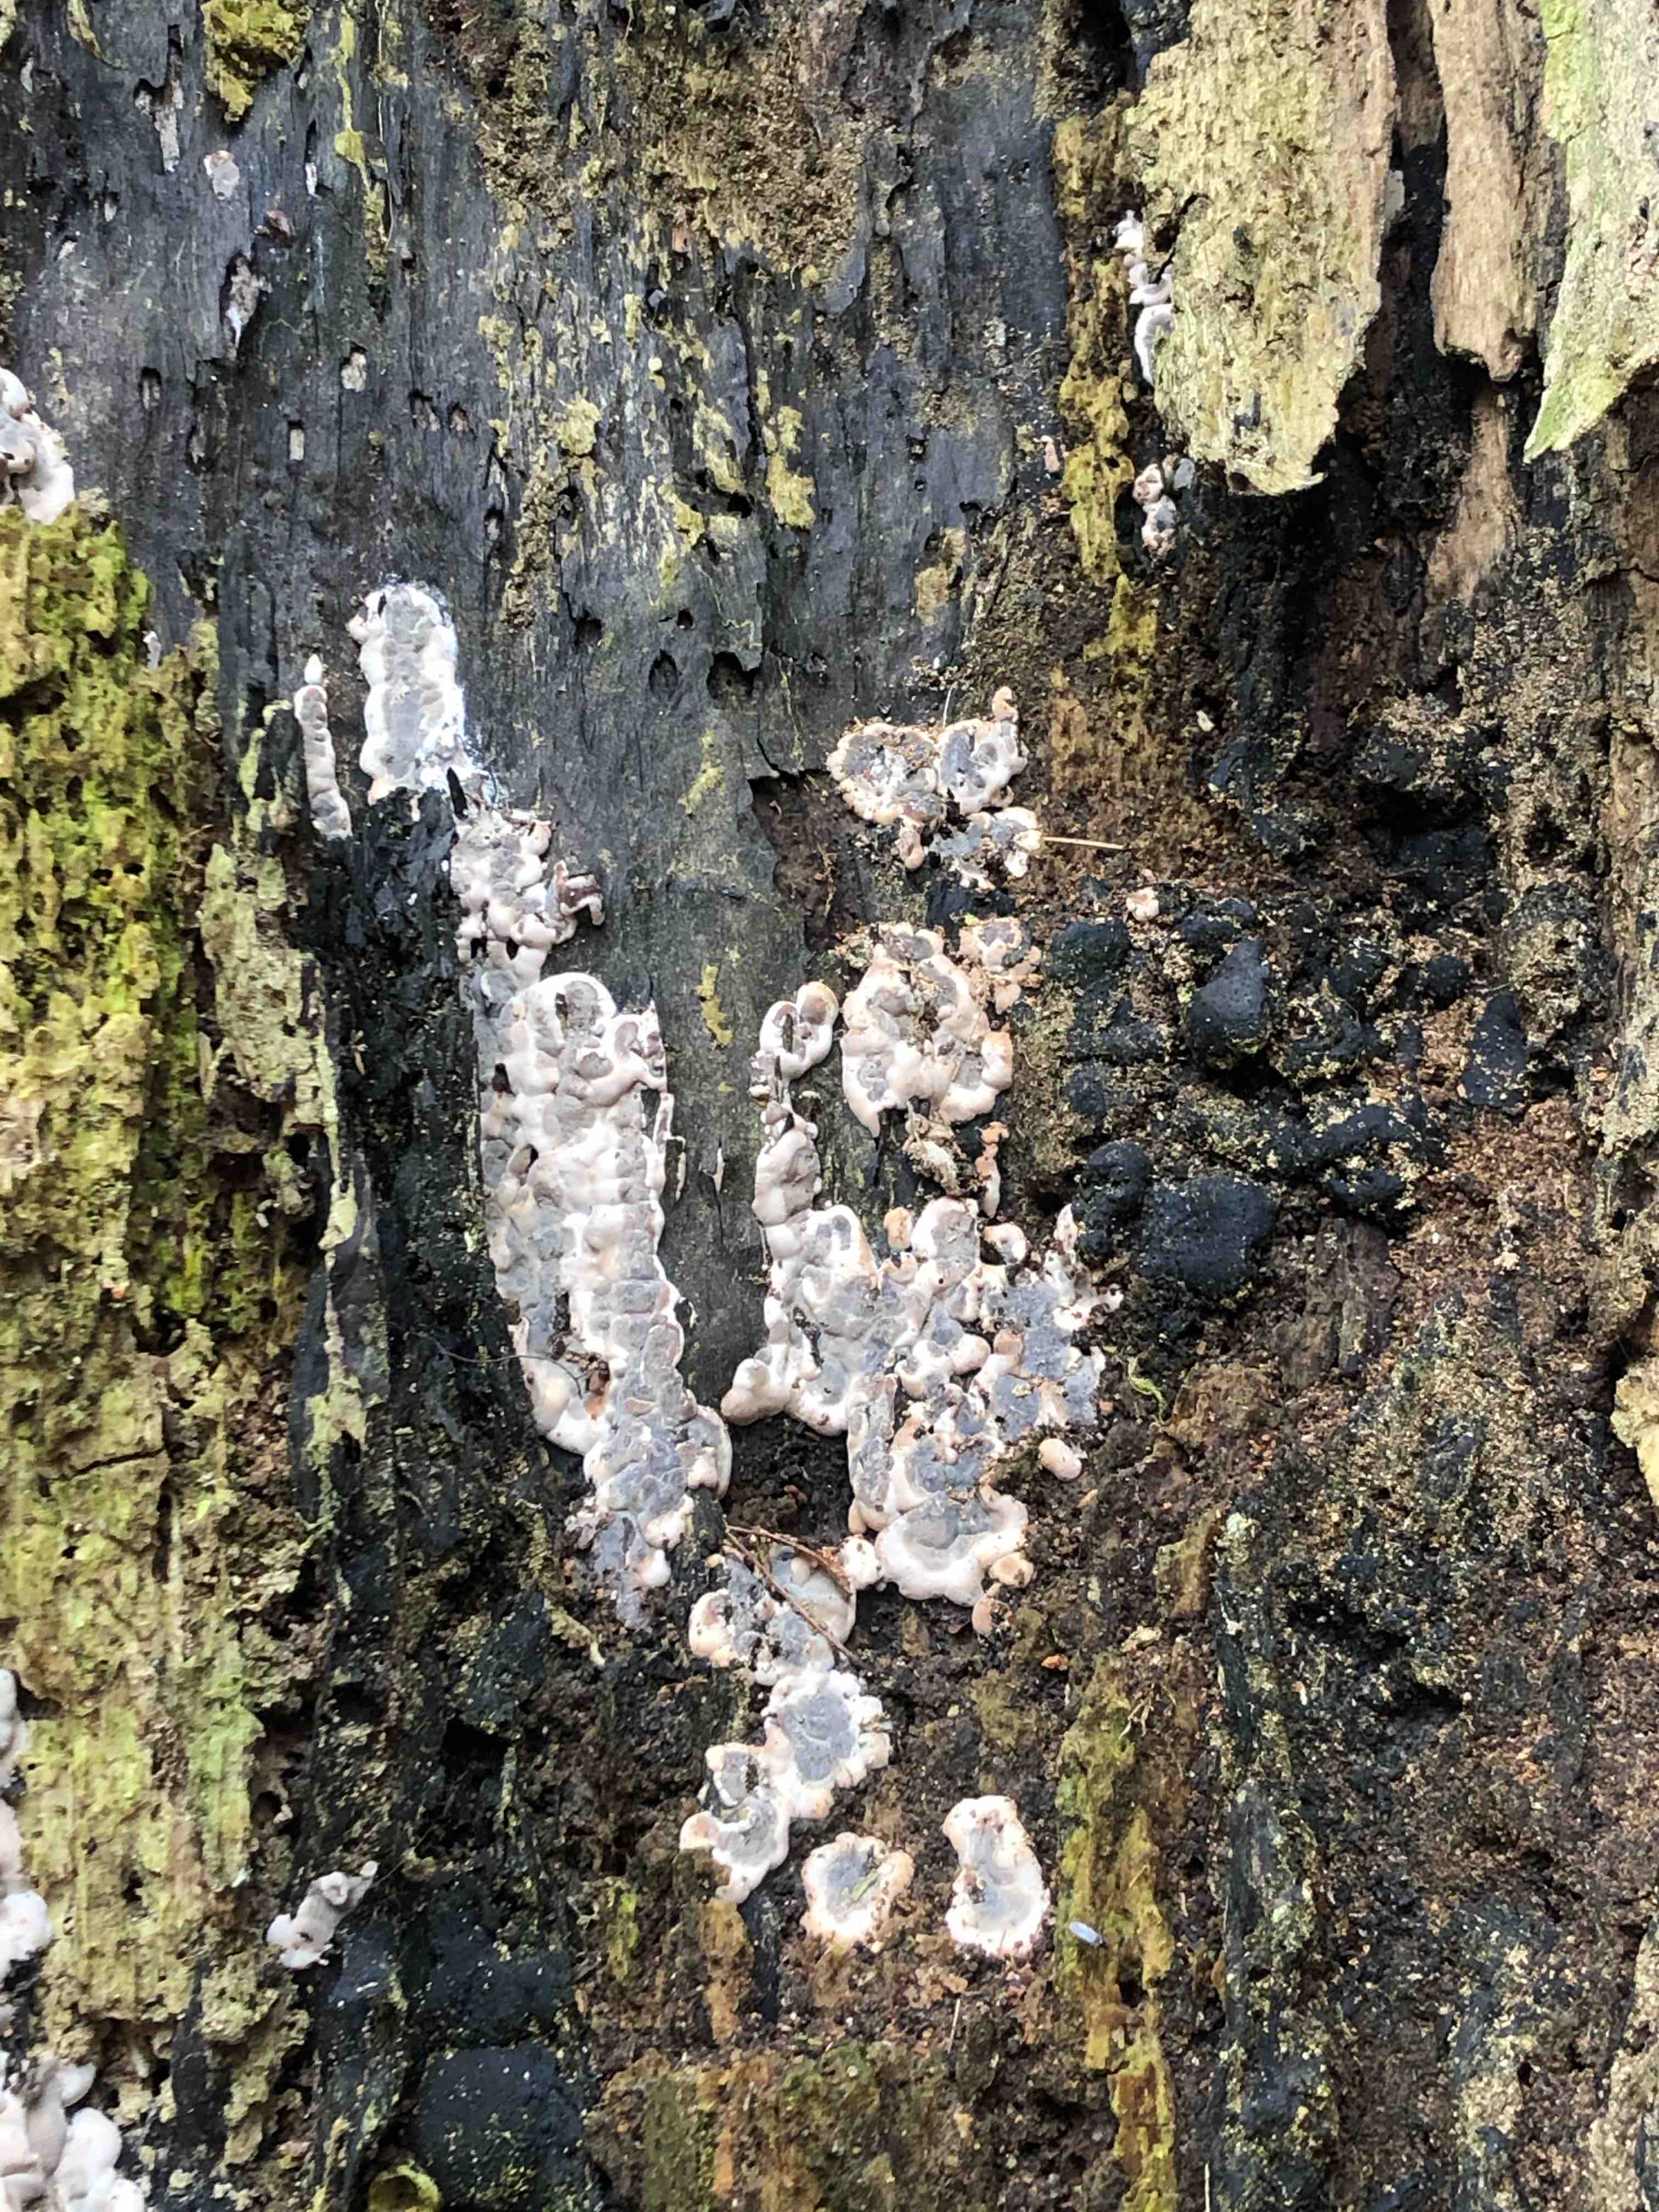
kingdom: Fungi
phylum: Ascomycota
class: Sordariomycetes
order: Xylariales
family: Xylariaceae
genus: Kretzschmaria
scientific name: Kretzschmaria deusta
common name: stor kulsvamp
